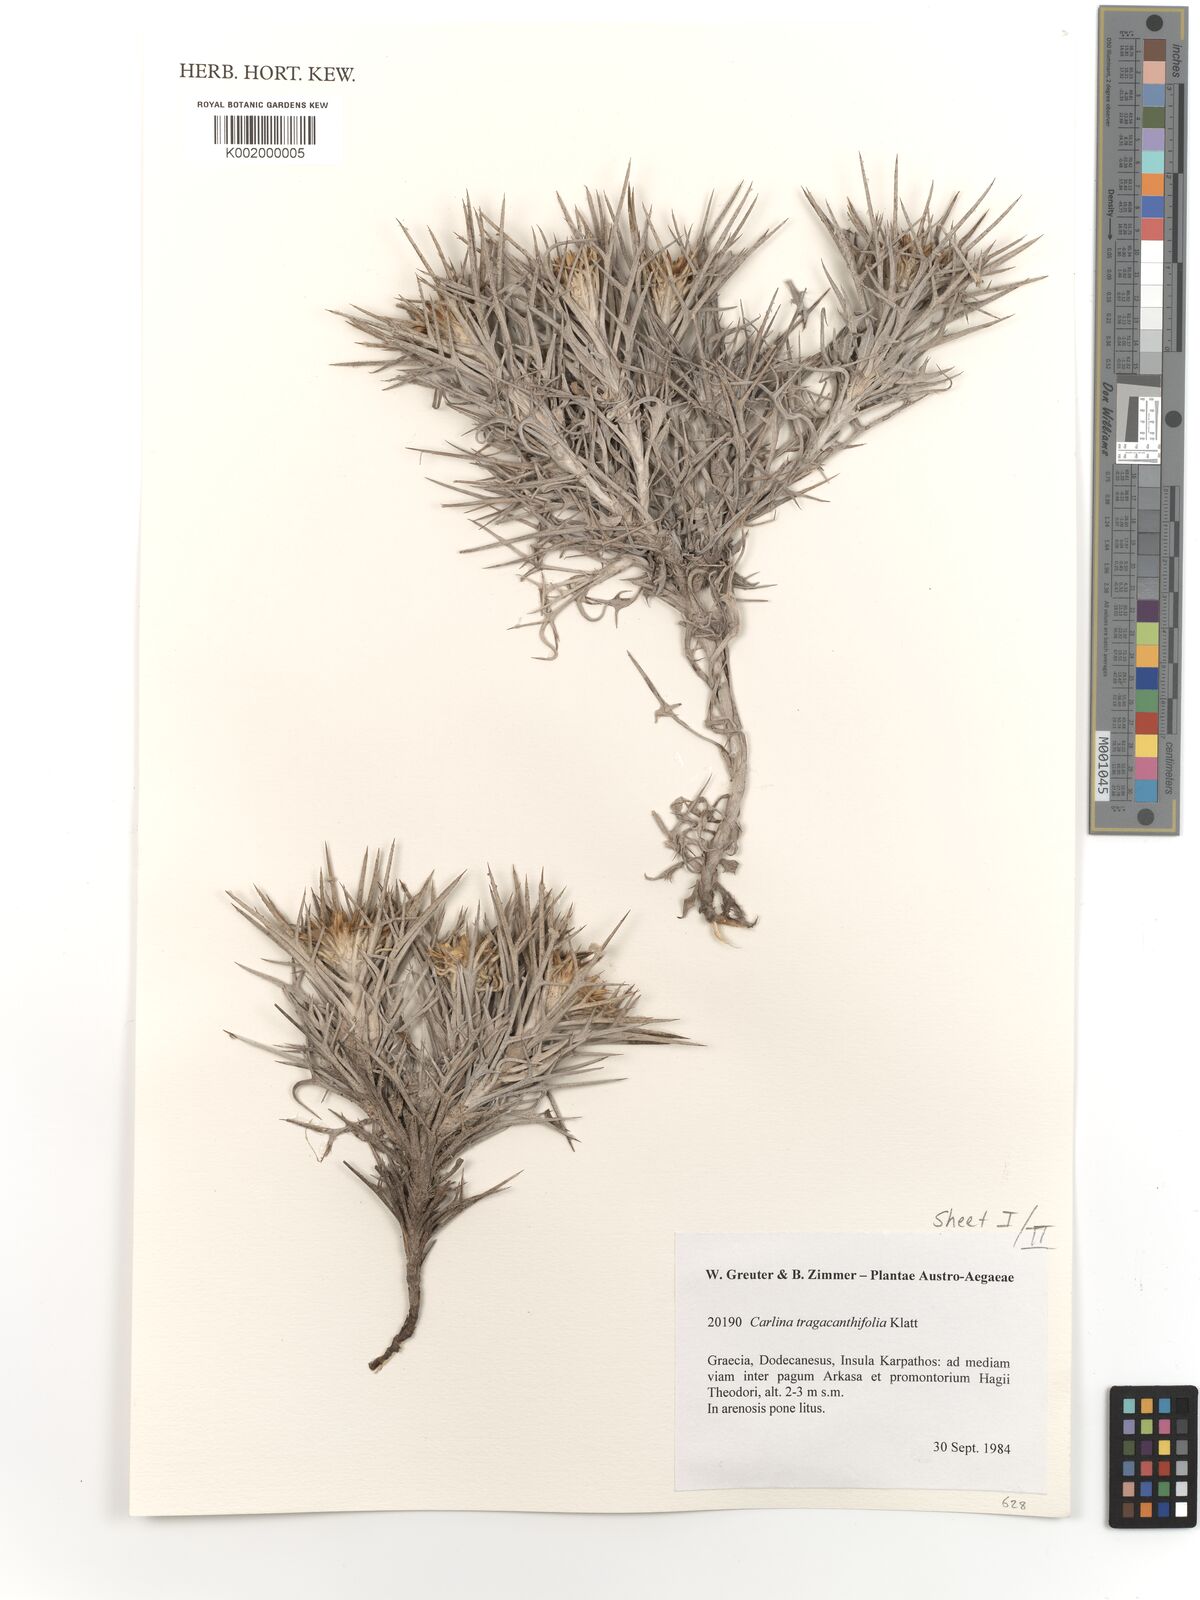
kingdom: Plantae
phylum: Tracheophyta
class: Magnoliopsida
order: Asterales
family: Asteraceae
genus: Carlina
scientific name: Carlina tragacanthifolia
